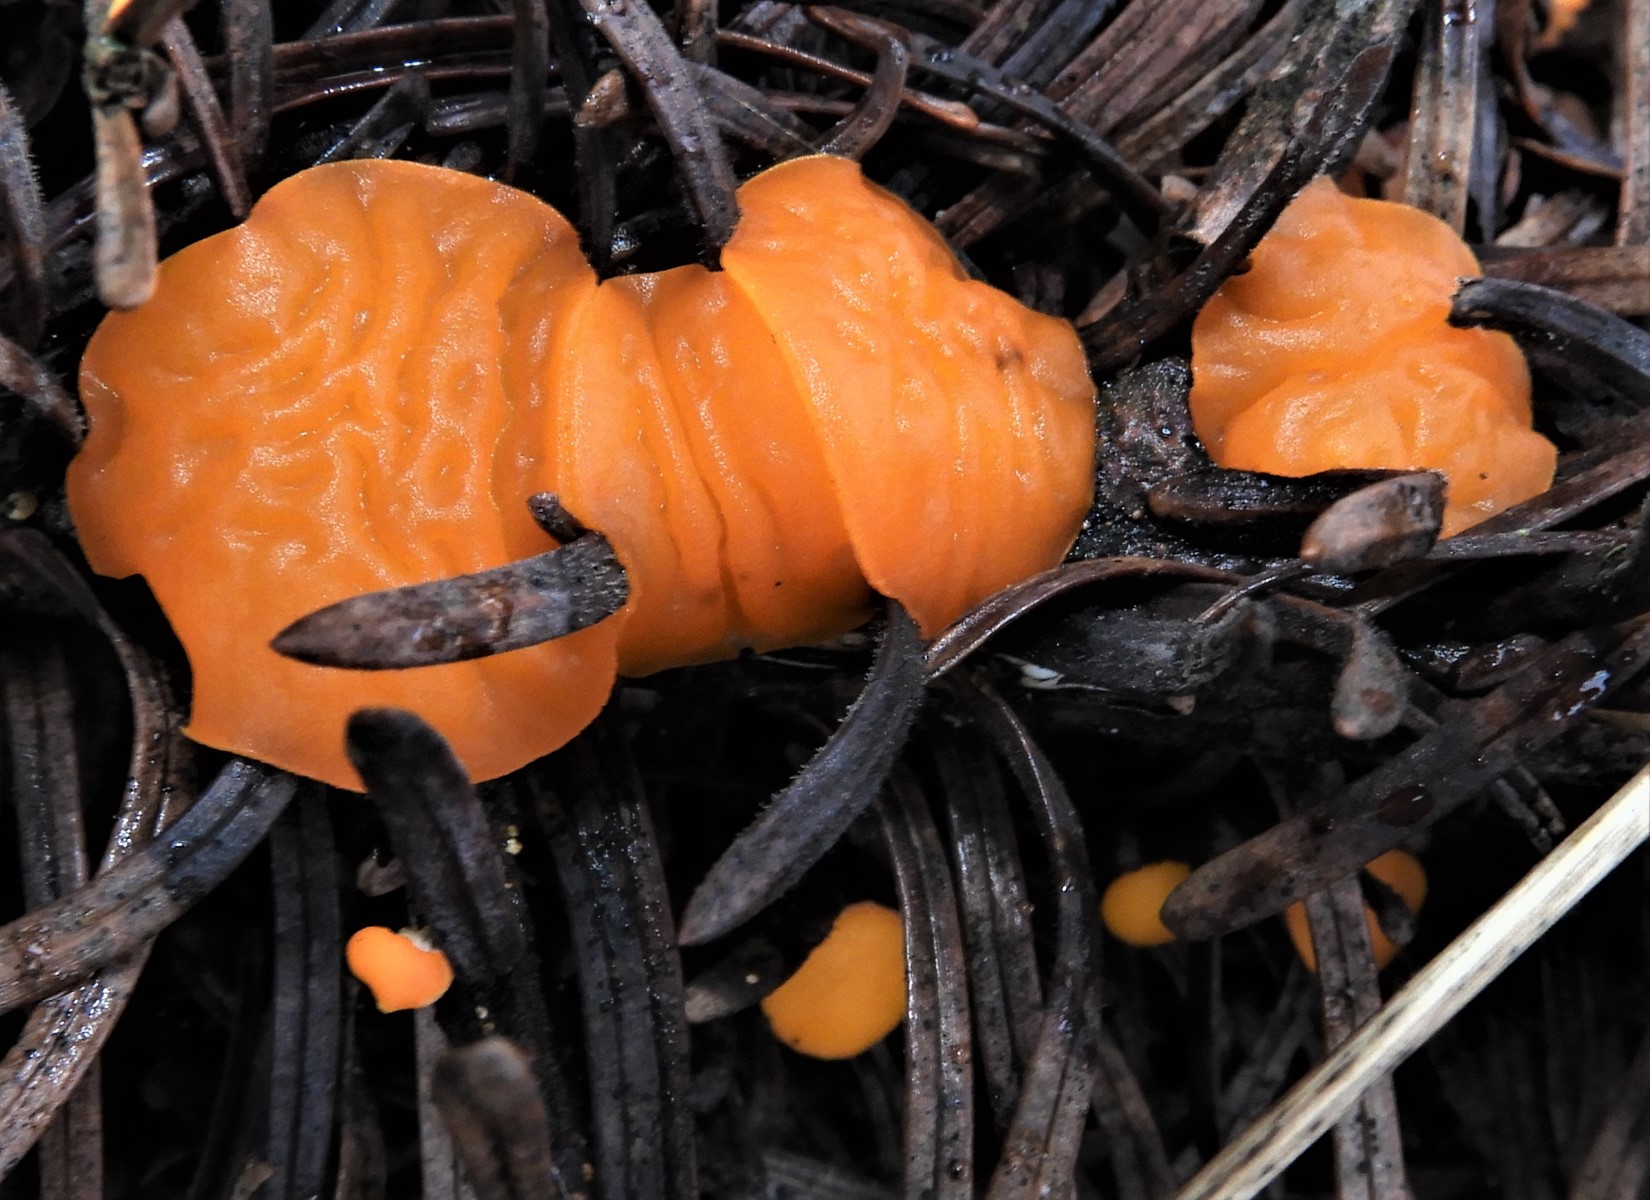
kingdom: Fungi
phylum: Ascomycota
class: Pezizomycetes
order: Pezizales
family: Sarcoscyphaceae
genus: Pithya
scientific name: Pithya vulgaris
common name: stor dukatbæger
